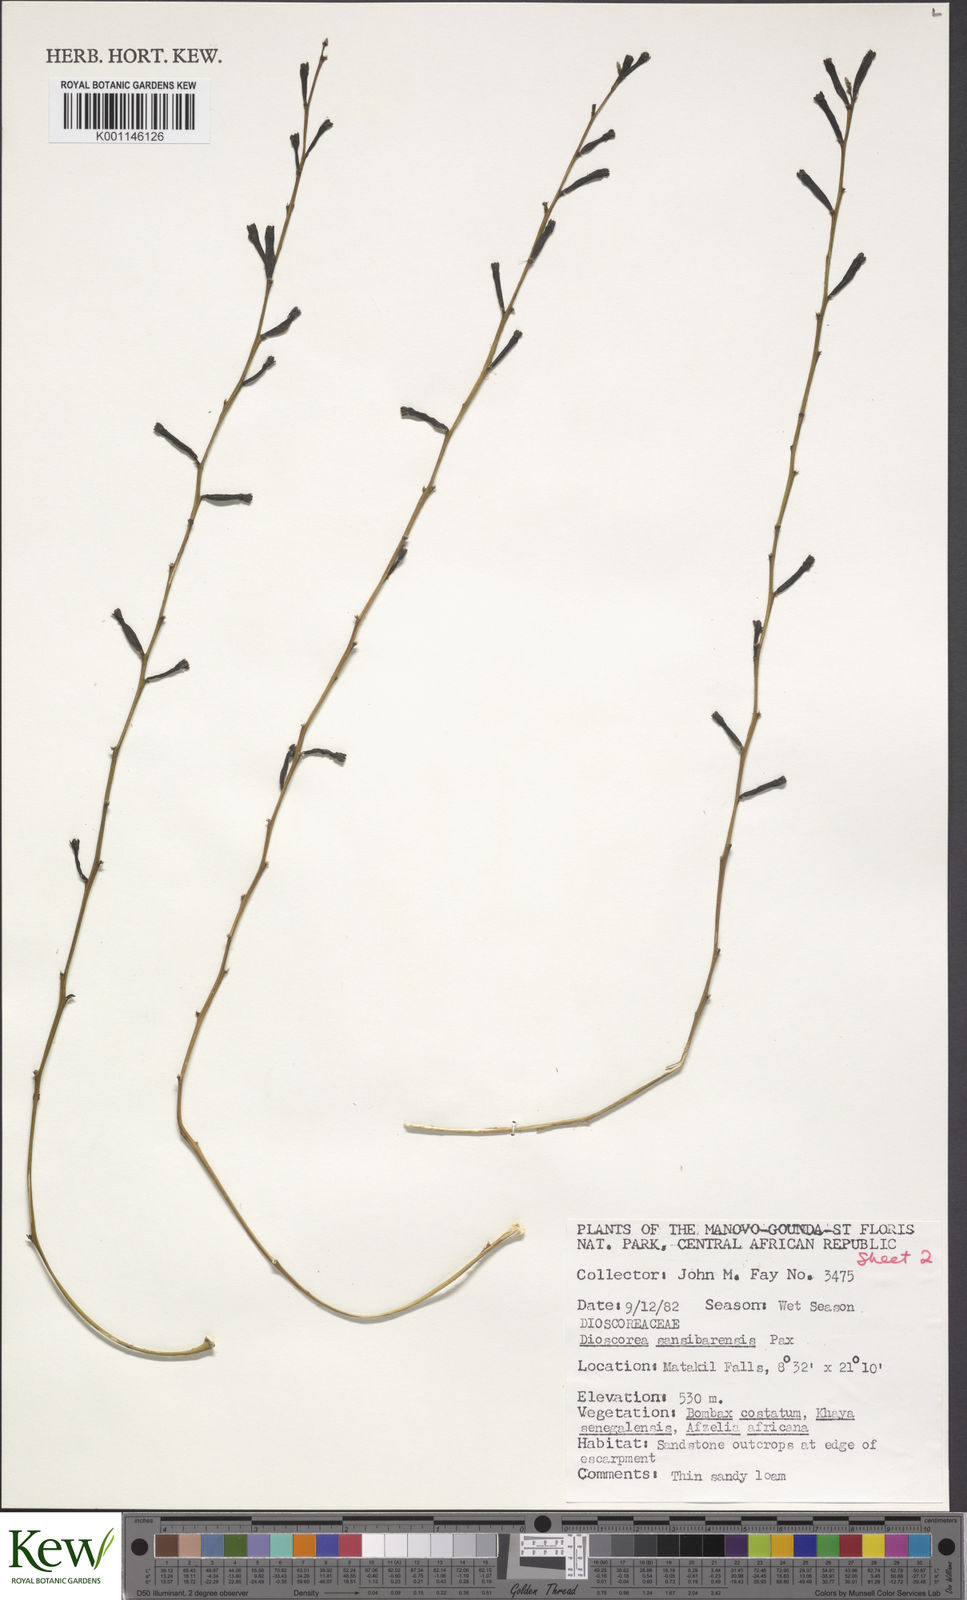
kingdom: Plantae
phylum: Tracheophyta
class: Liliopsida
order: Dioscoreales
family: Dioscoreaceae
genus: Dioscorea
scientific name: Dioscorea sansibarensis
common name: Zanzibar yam
